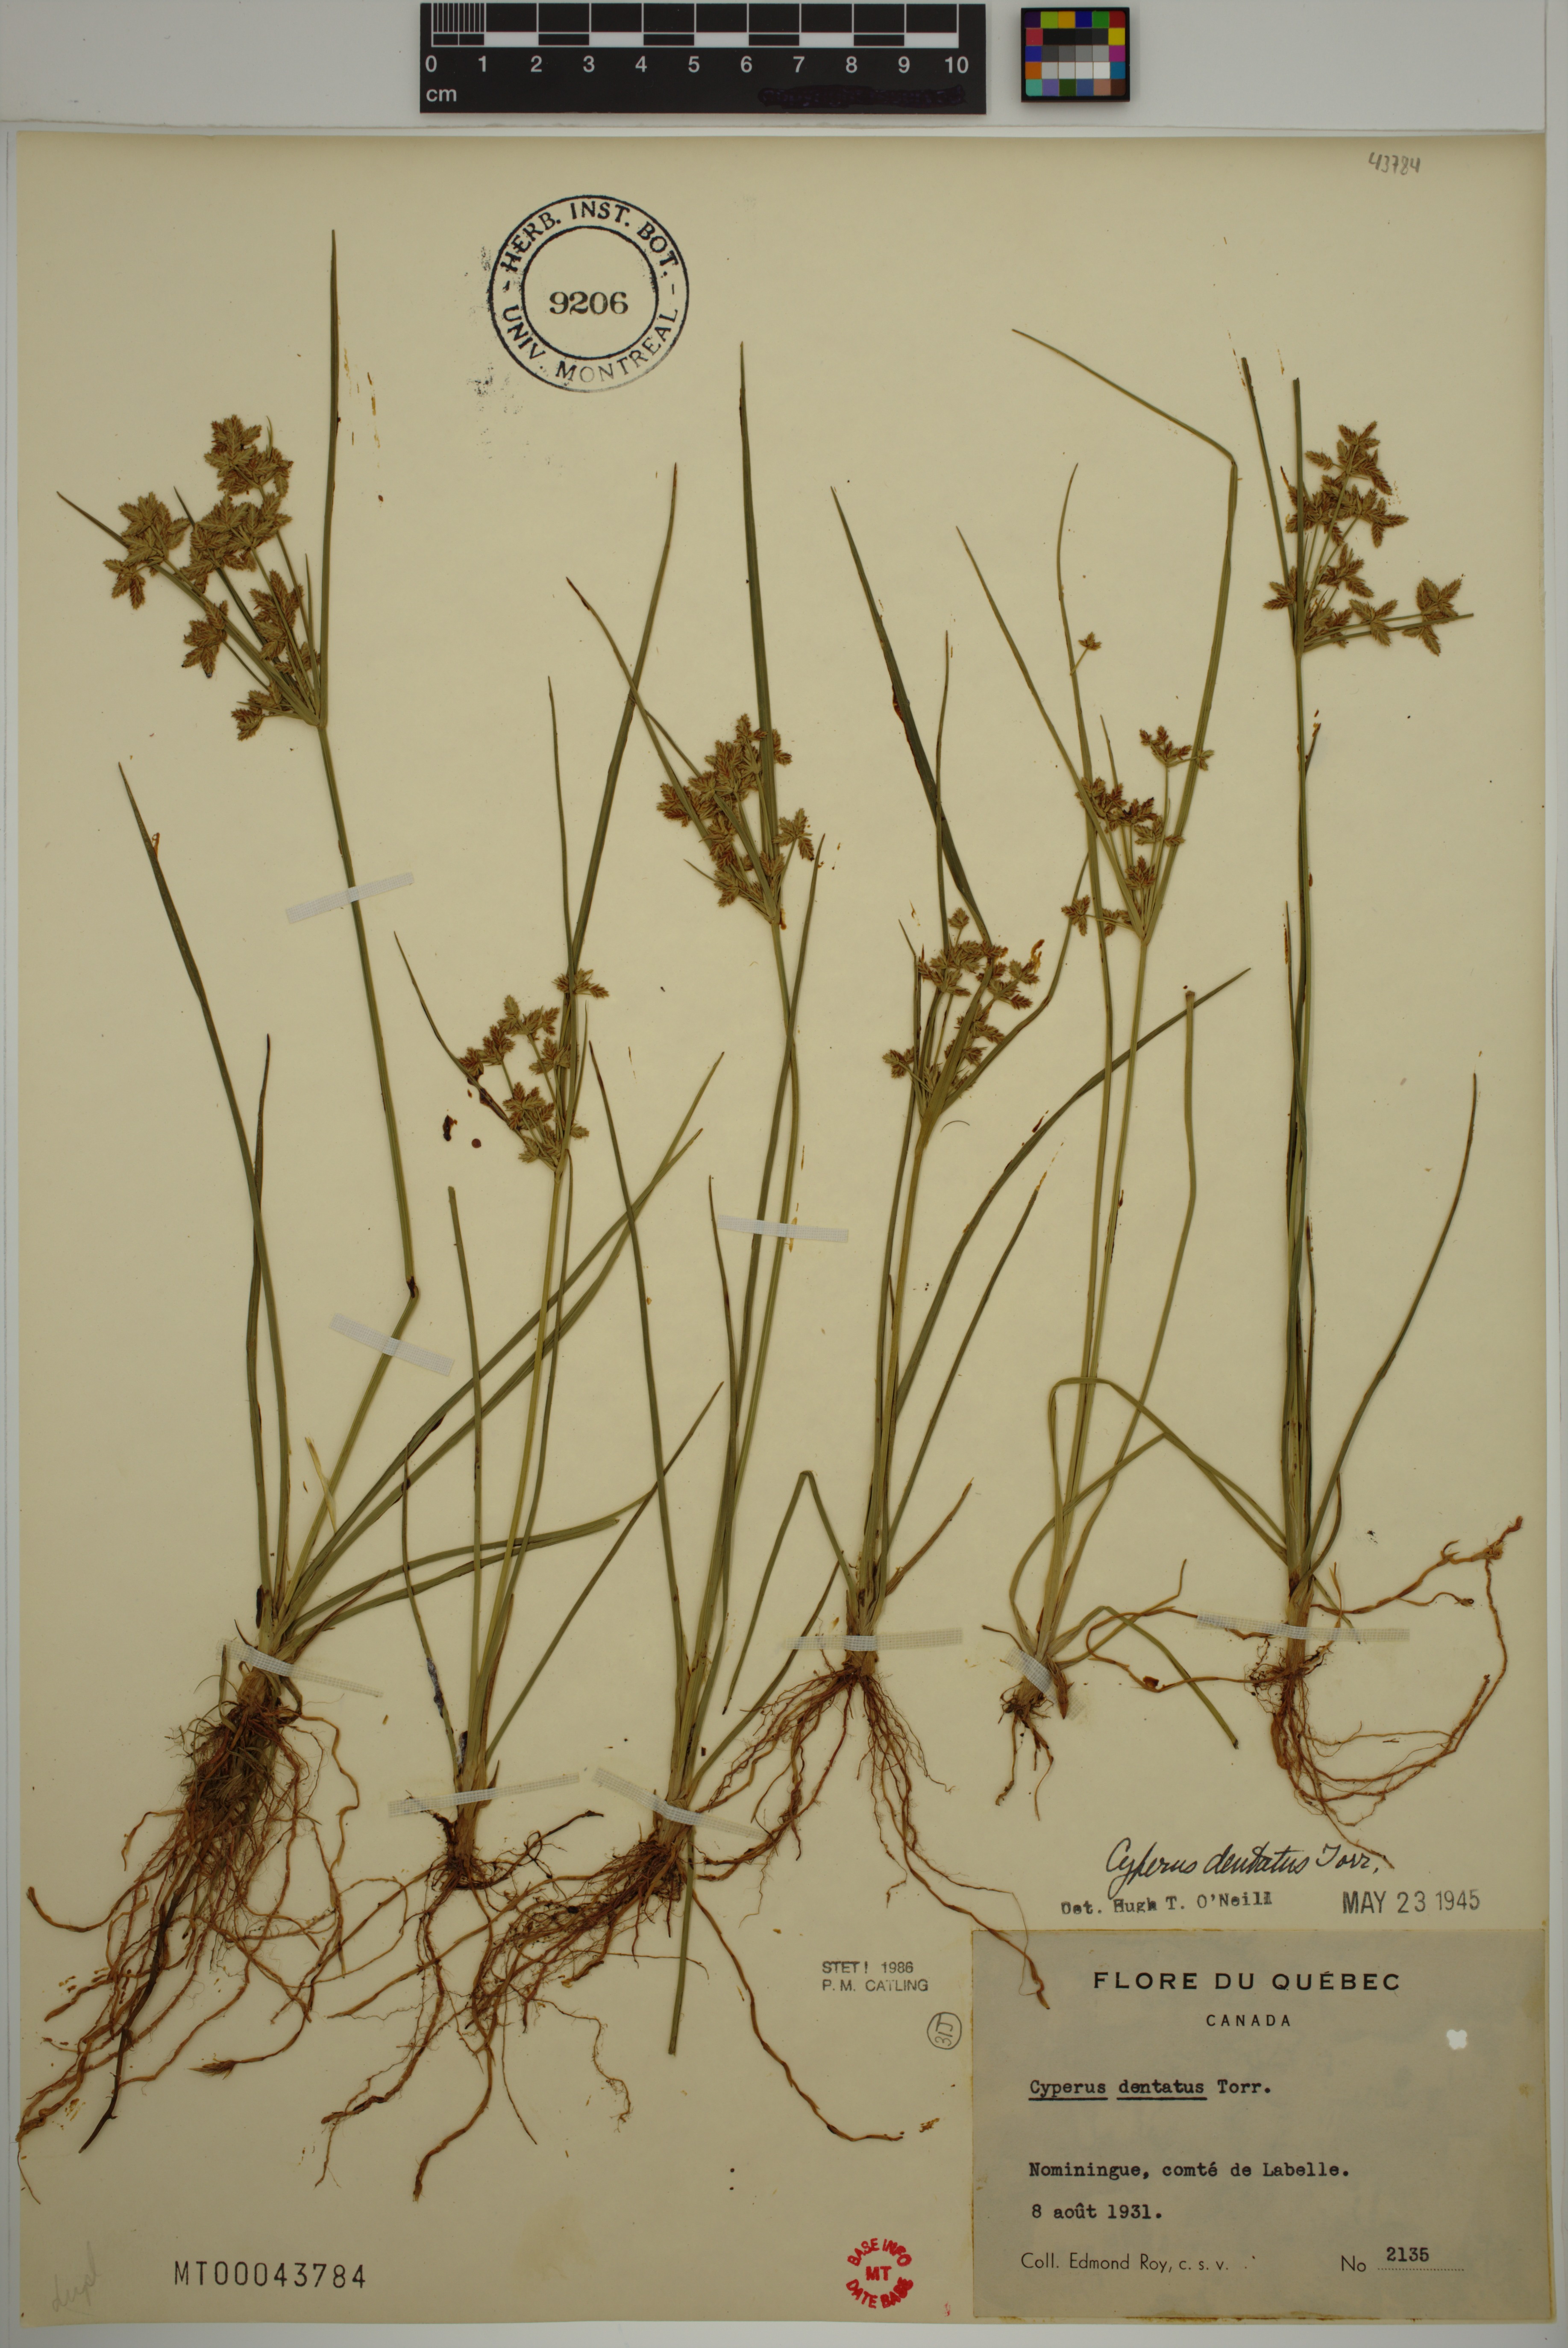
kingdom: Plantae
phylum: Tracheophyta
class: Liliopsida
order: Poales
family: Cyperaceae
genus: Cyperus
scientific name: Cyperus dentatus
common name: Dentate umbrella sedge
